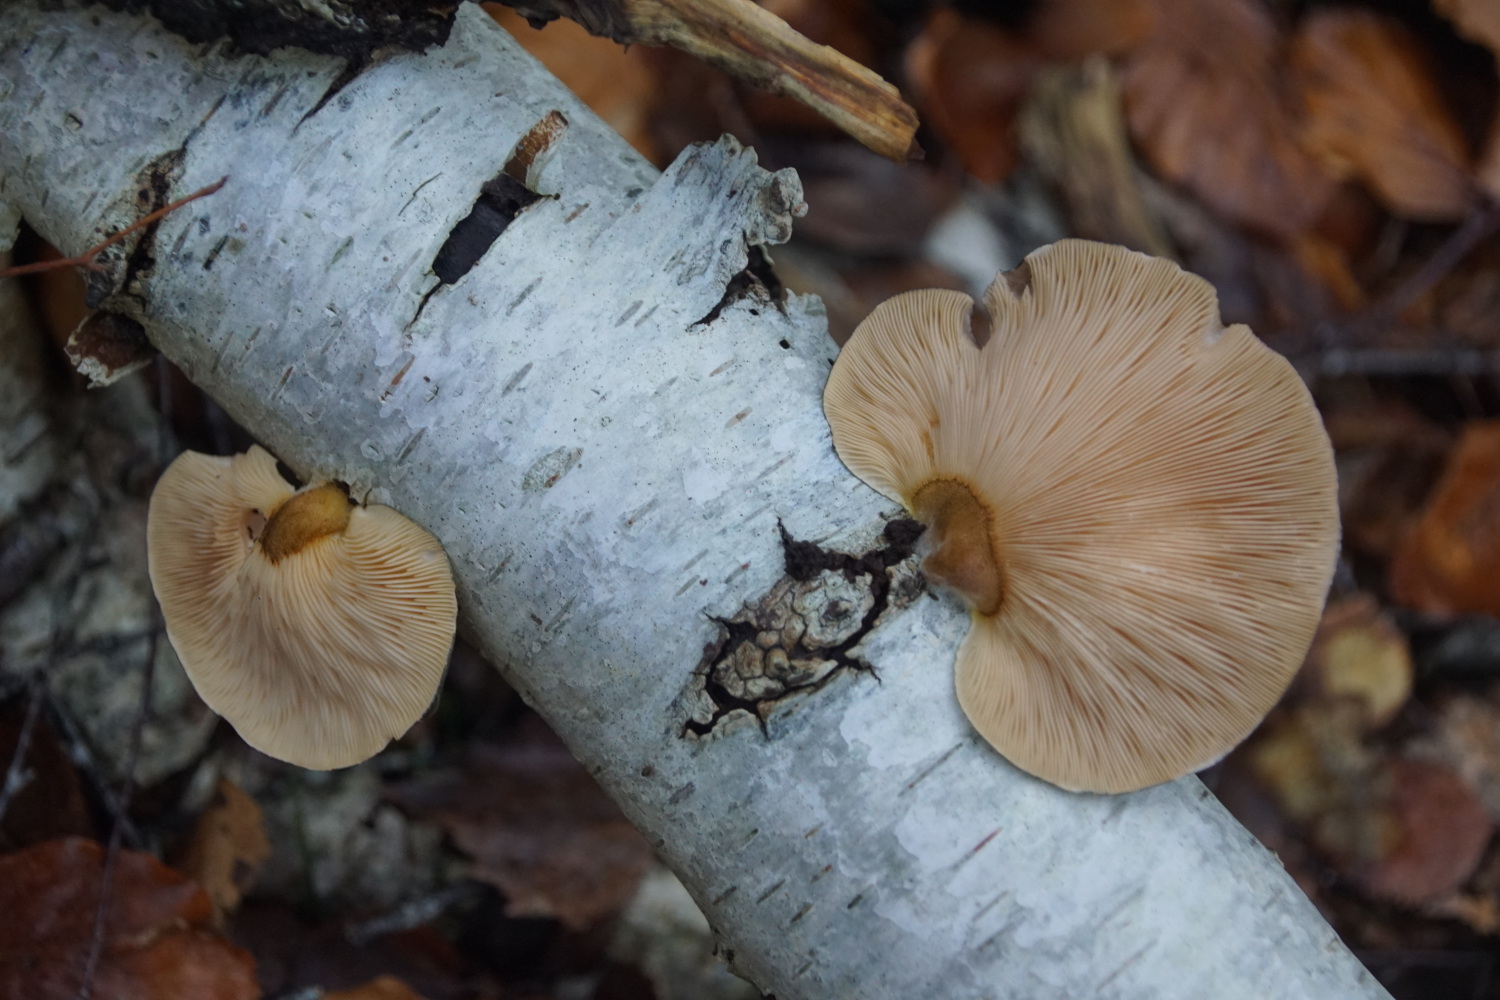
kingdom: Fungi
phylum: Basidiomycota
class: Agaricomycetes
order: Agaricales
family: Sarcomyxaceae
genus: Sarcomyxa
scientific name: Sarcomyxa serotina
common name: gummihat
